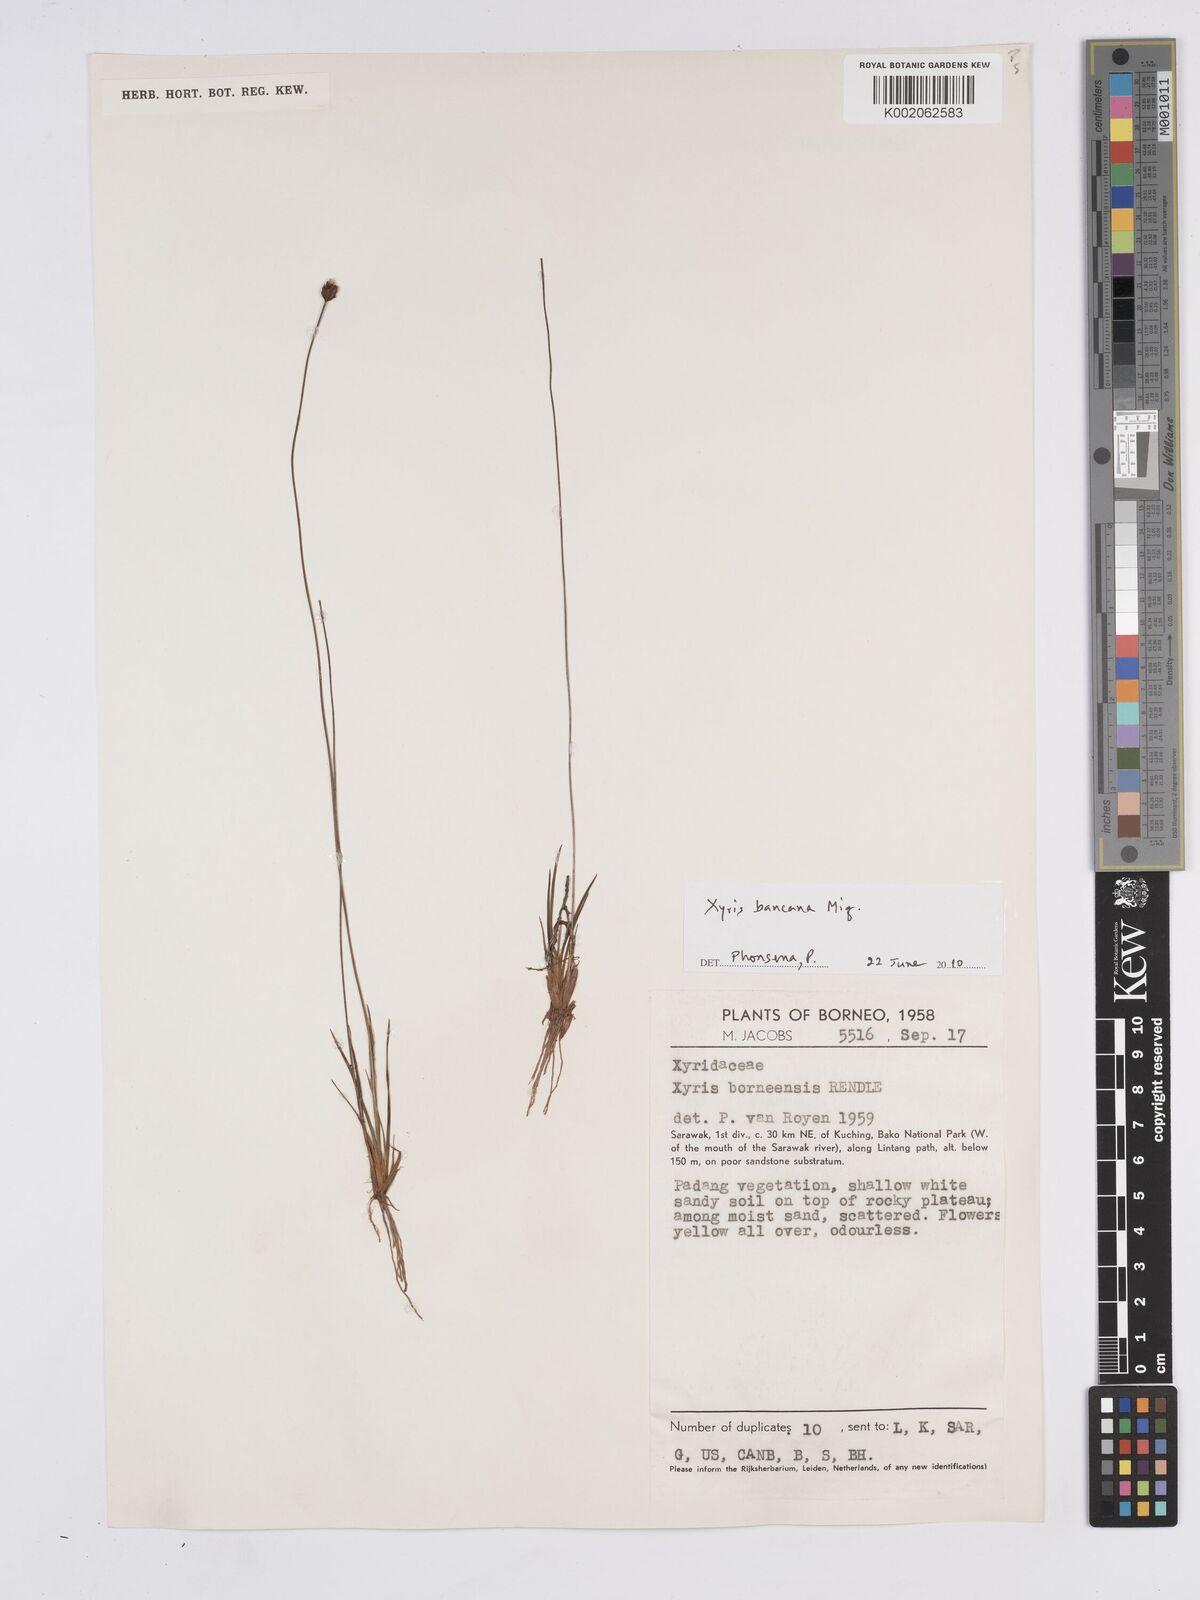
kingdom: Plantae
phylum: Tracheophyta
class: Liliopsida
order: Poales
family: Xyridaceae
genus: Xyris
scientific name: Xyris bancana
